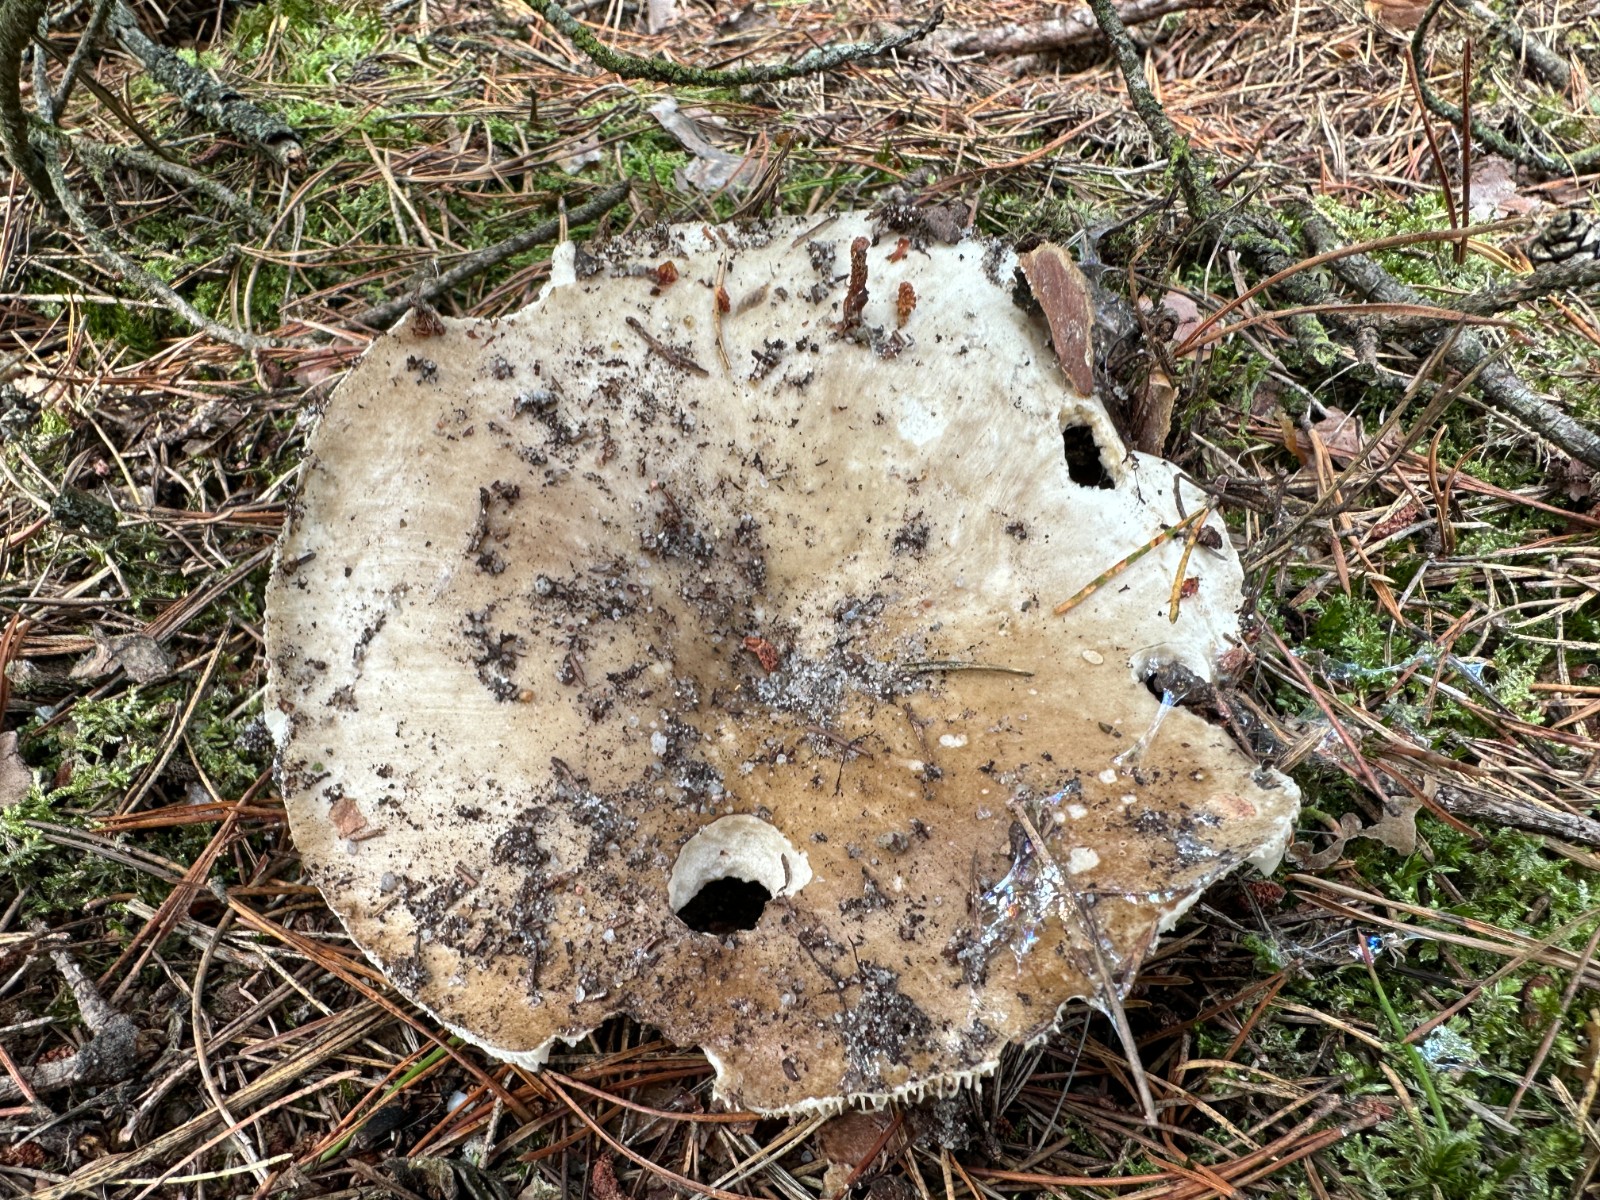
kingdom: Fungi
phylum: Basidiomycota
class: Agaricomycetes
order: Russulales
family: Russulaceae
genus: Russula
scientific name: Russula adusta
